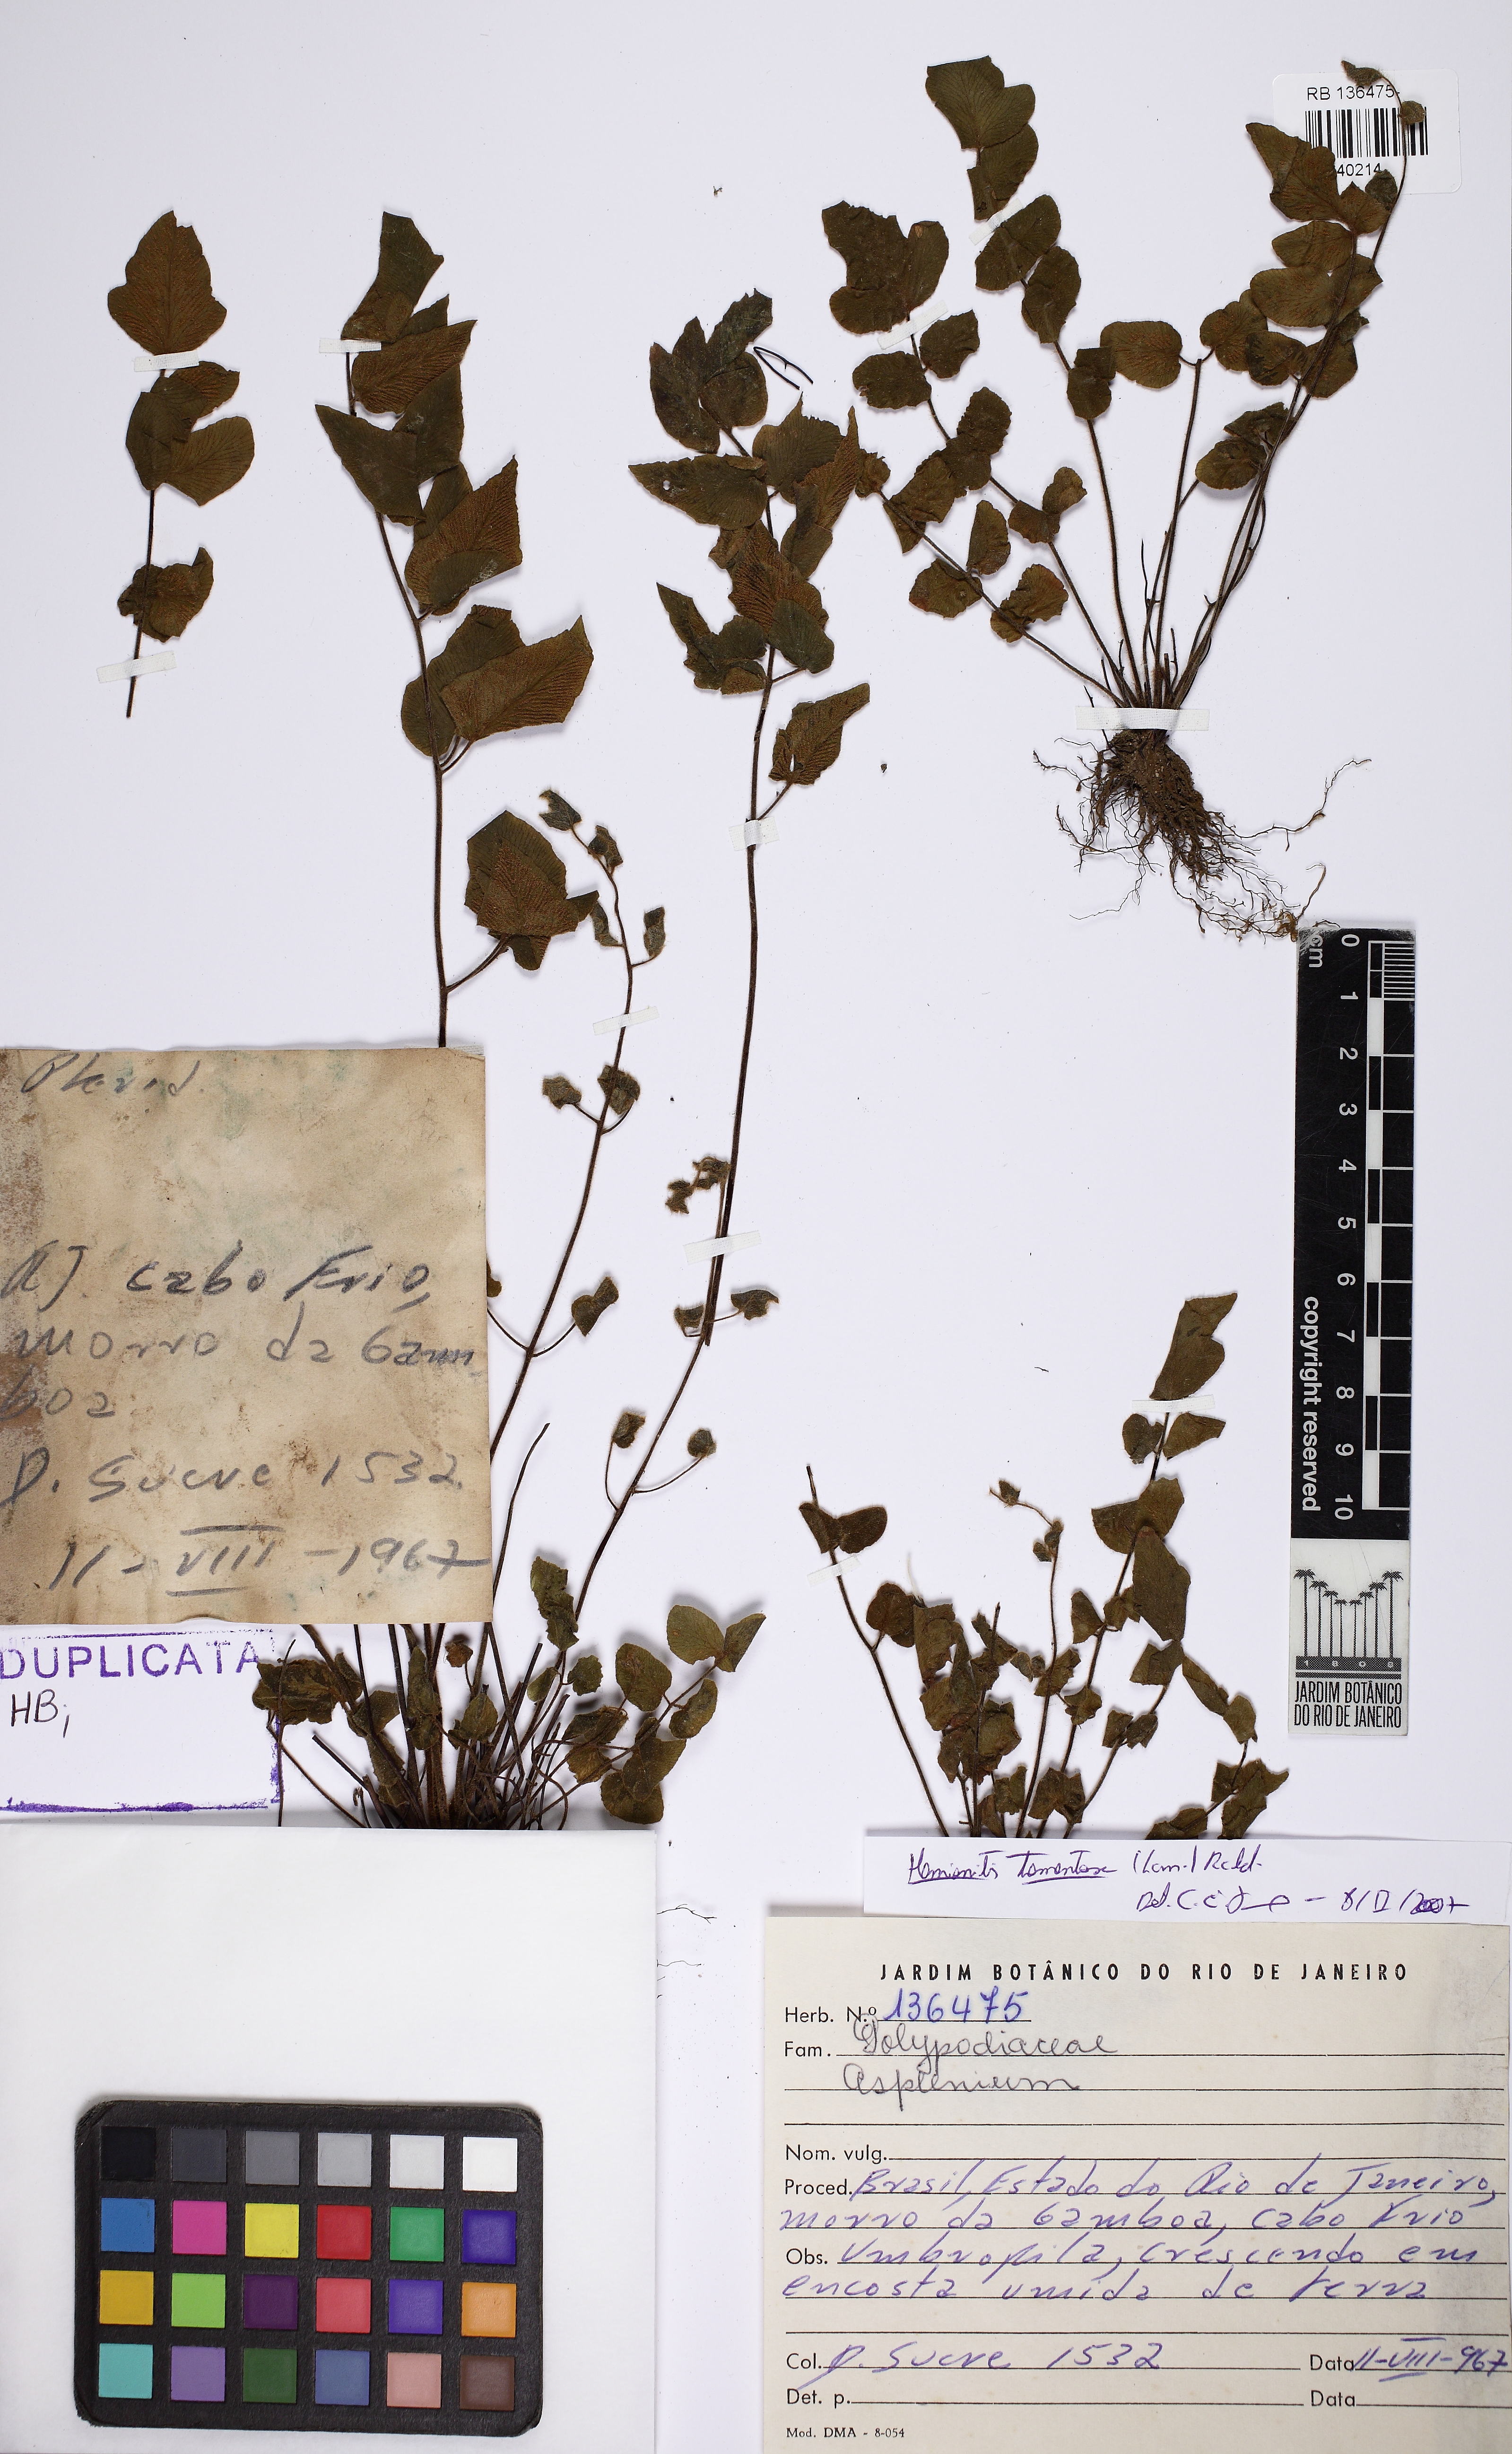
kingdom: Plantae
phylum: Tracheophyta
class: Polypodiopsida
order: Polypodiales
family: Pteridaceae
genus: Hemionitis
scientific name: Hemionitis tomentosa
